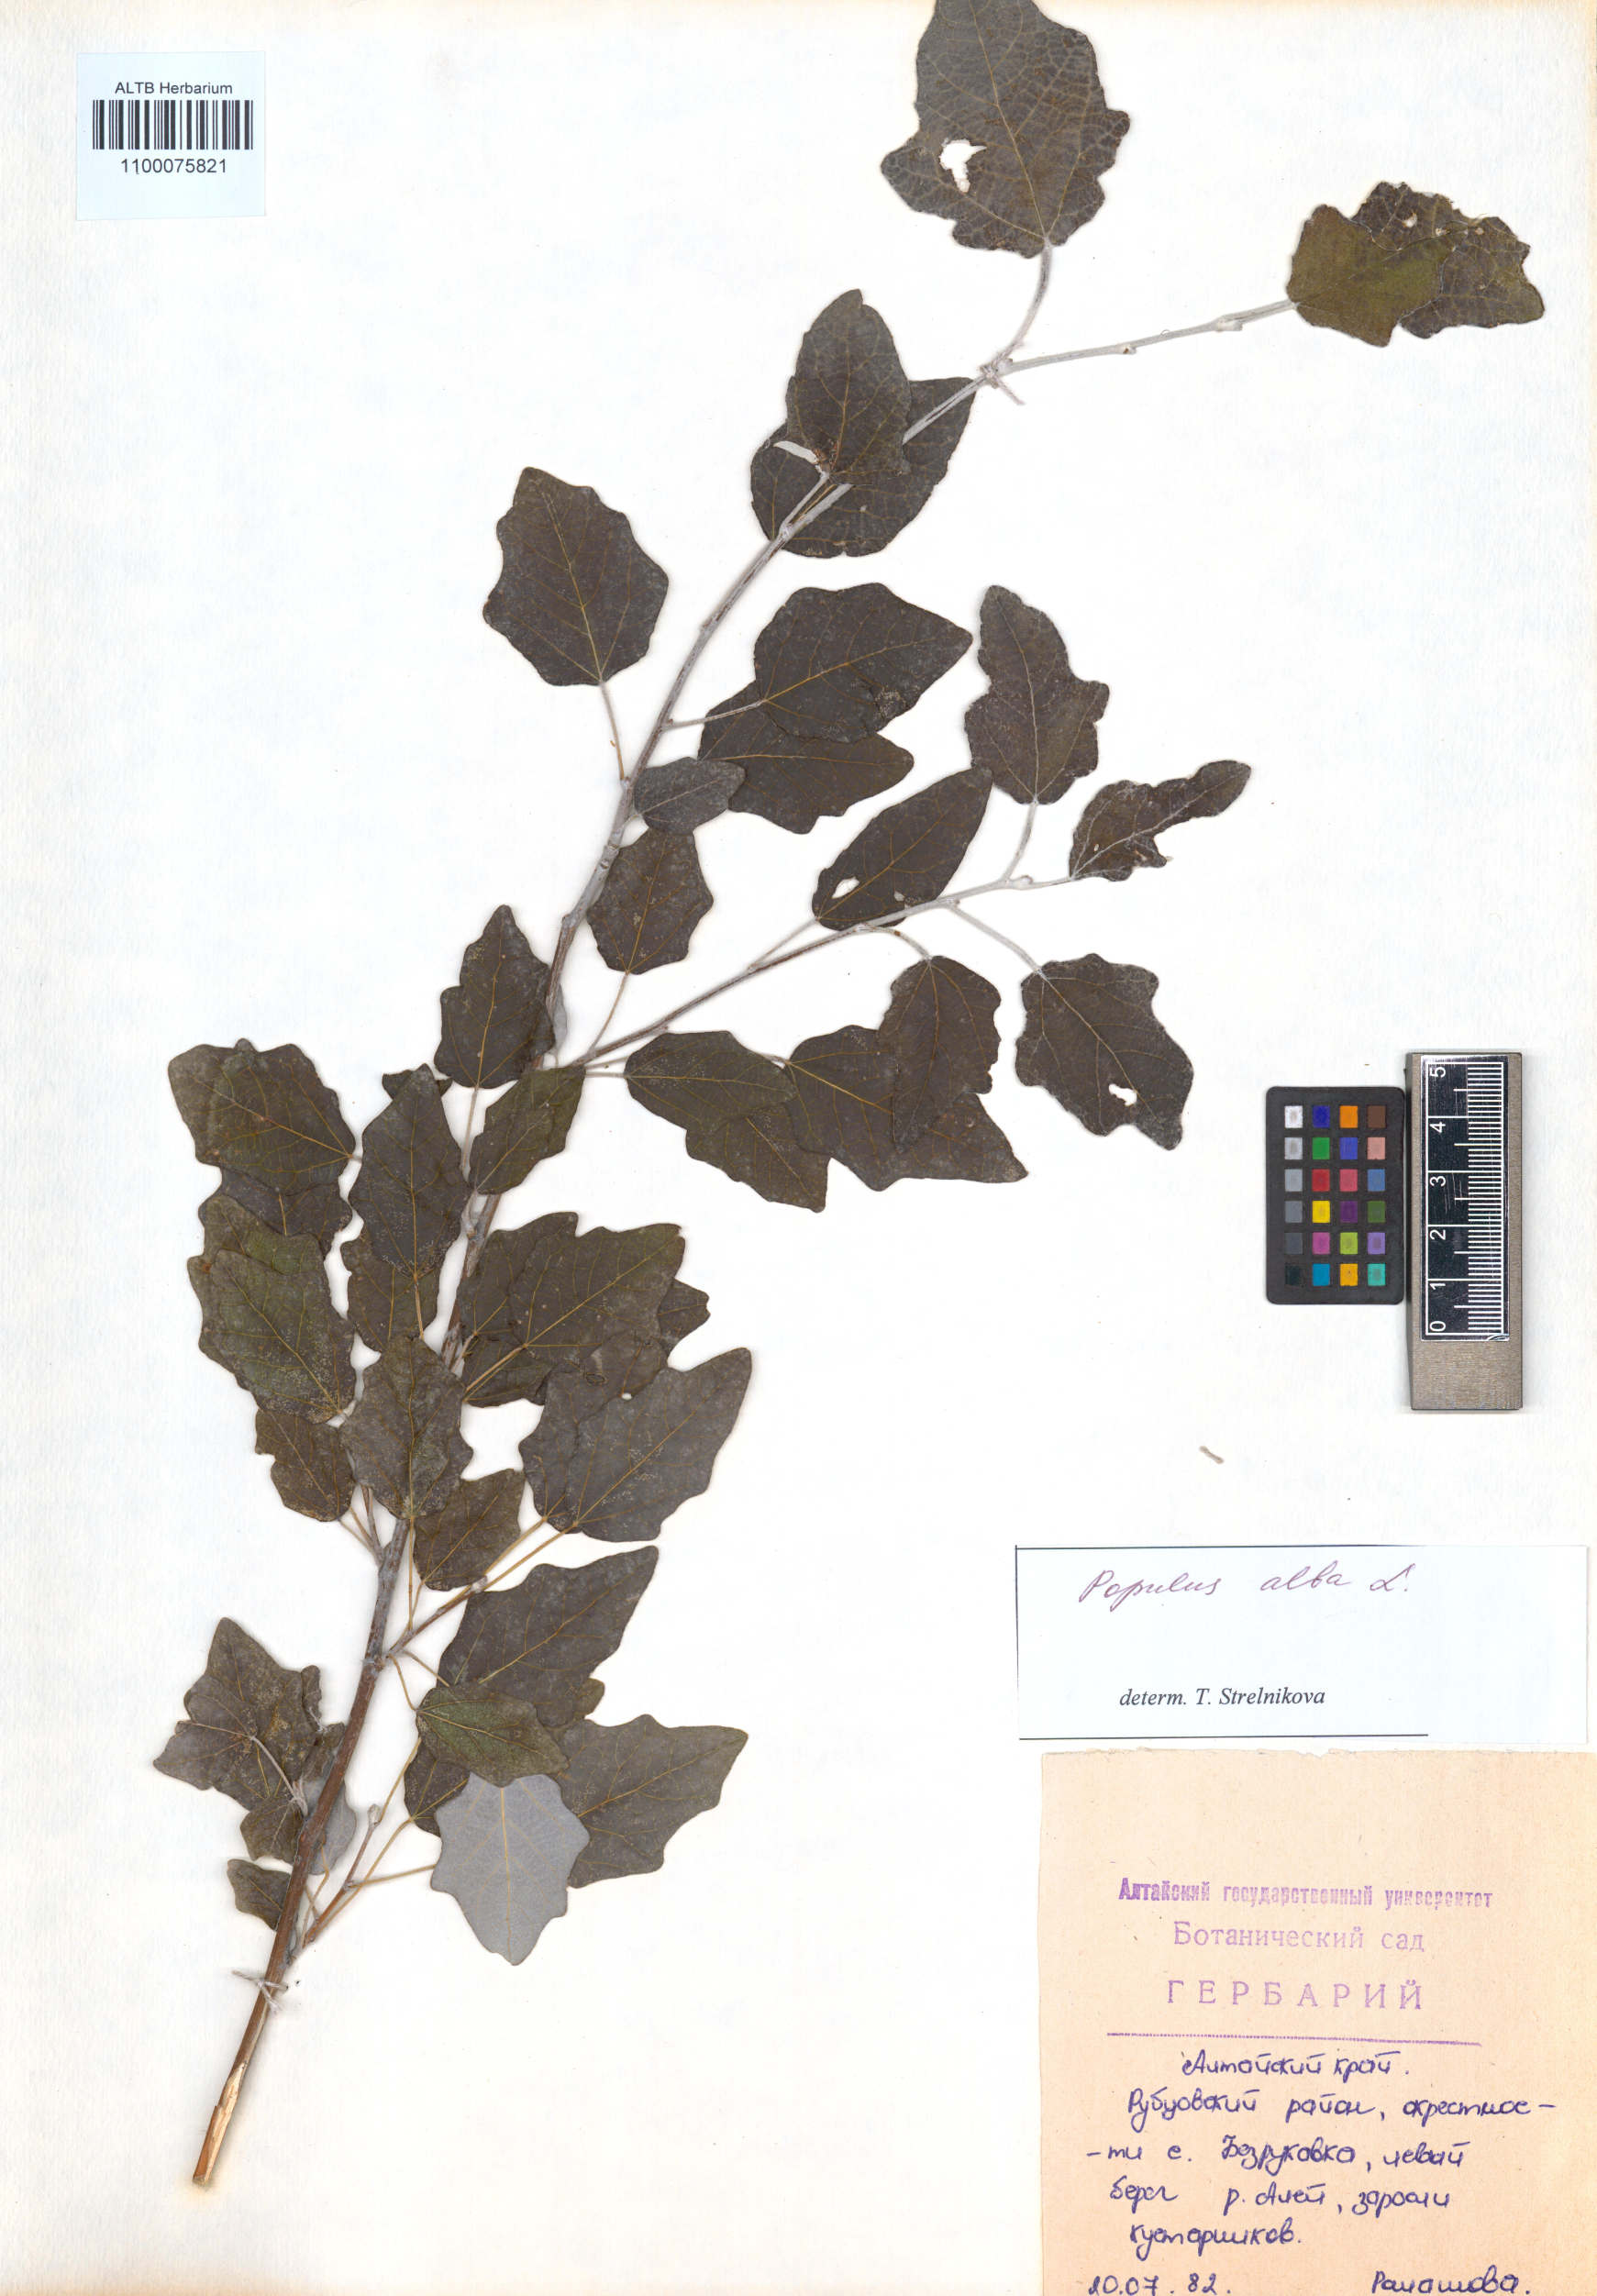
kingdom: Plantae
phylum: Tracheophyta
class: Magnoliopsida
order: Malpighiales
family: Salicaceae
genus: Populus
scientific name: Populus alba
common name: White poplar
